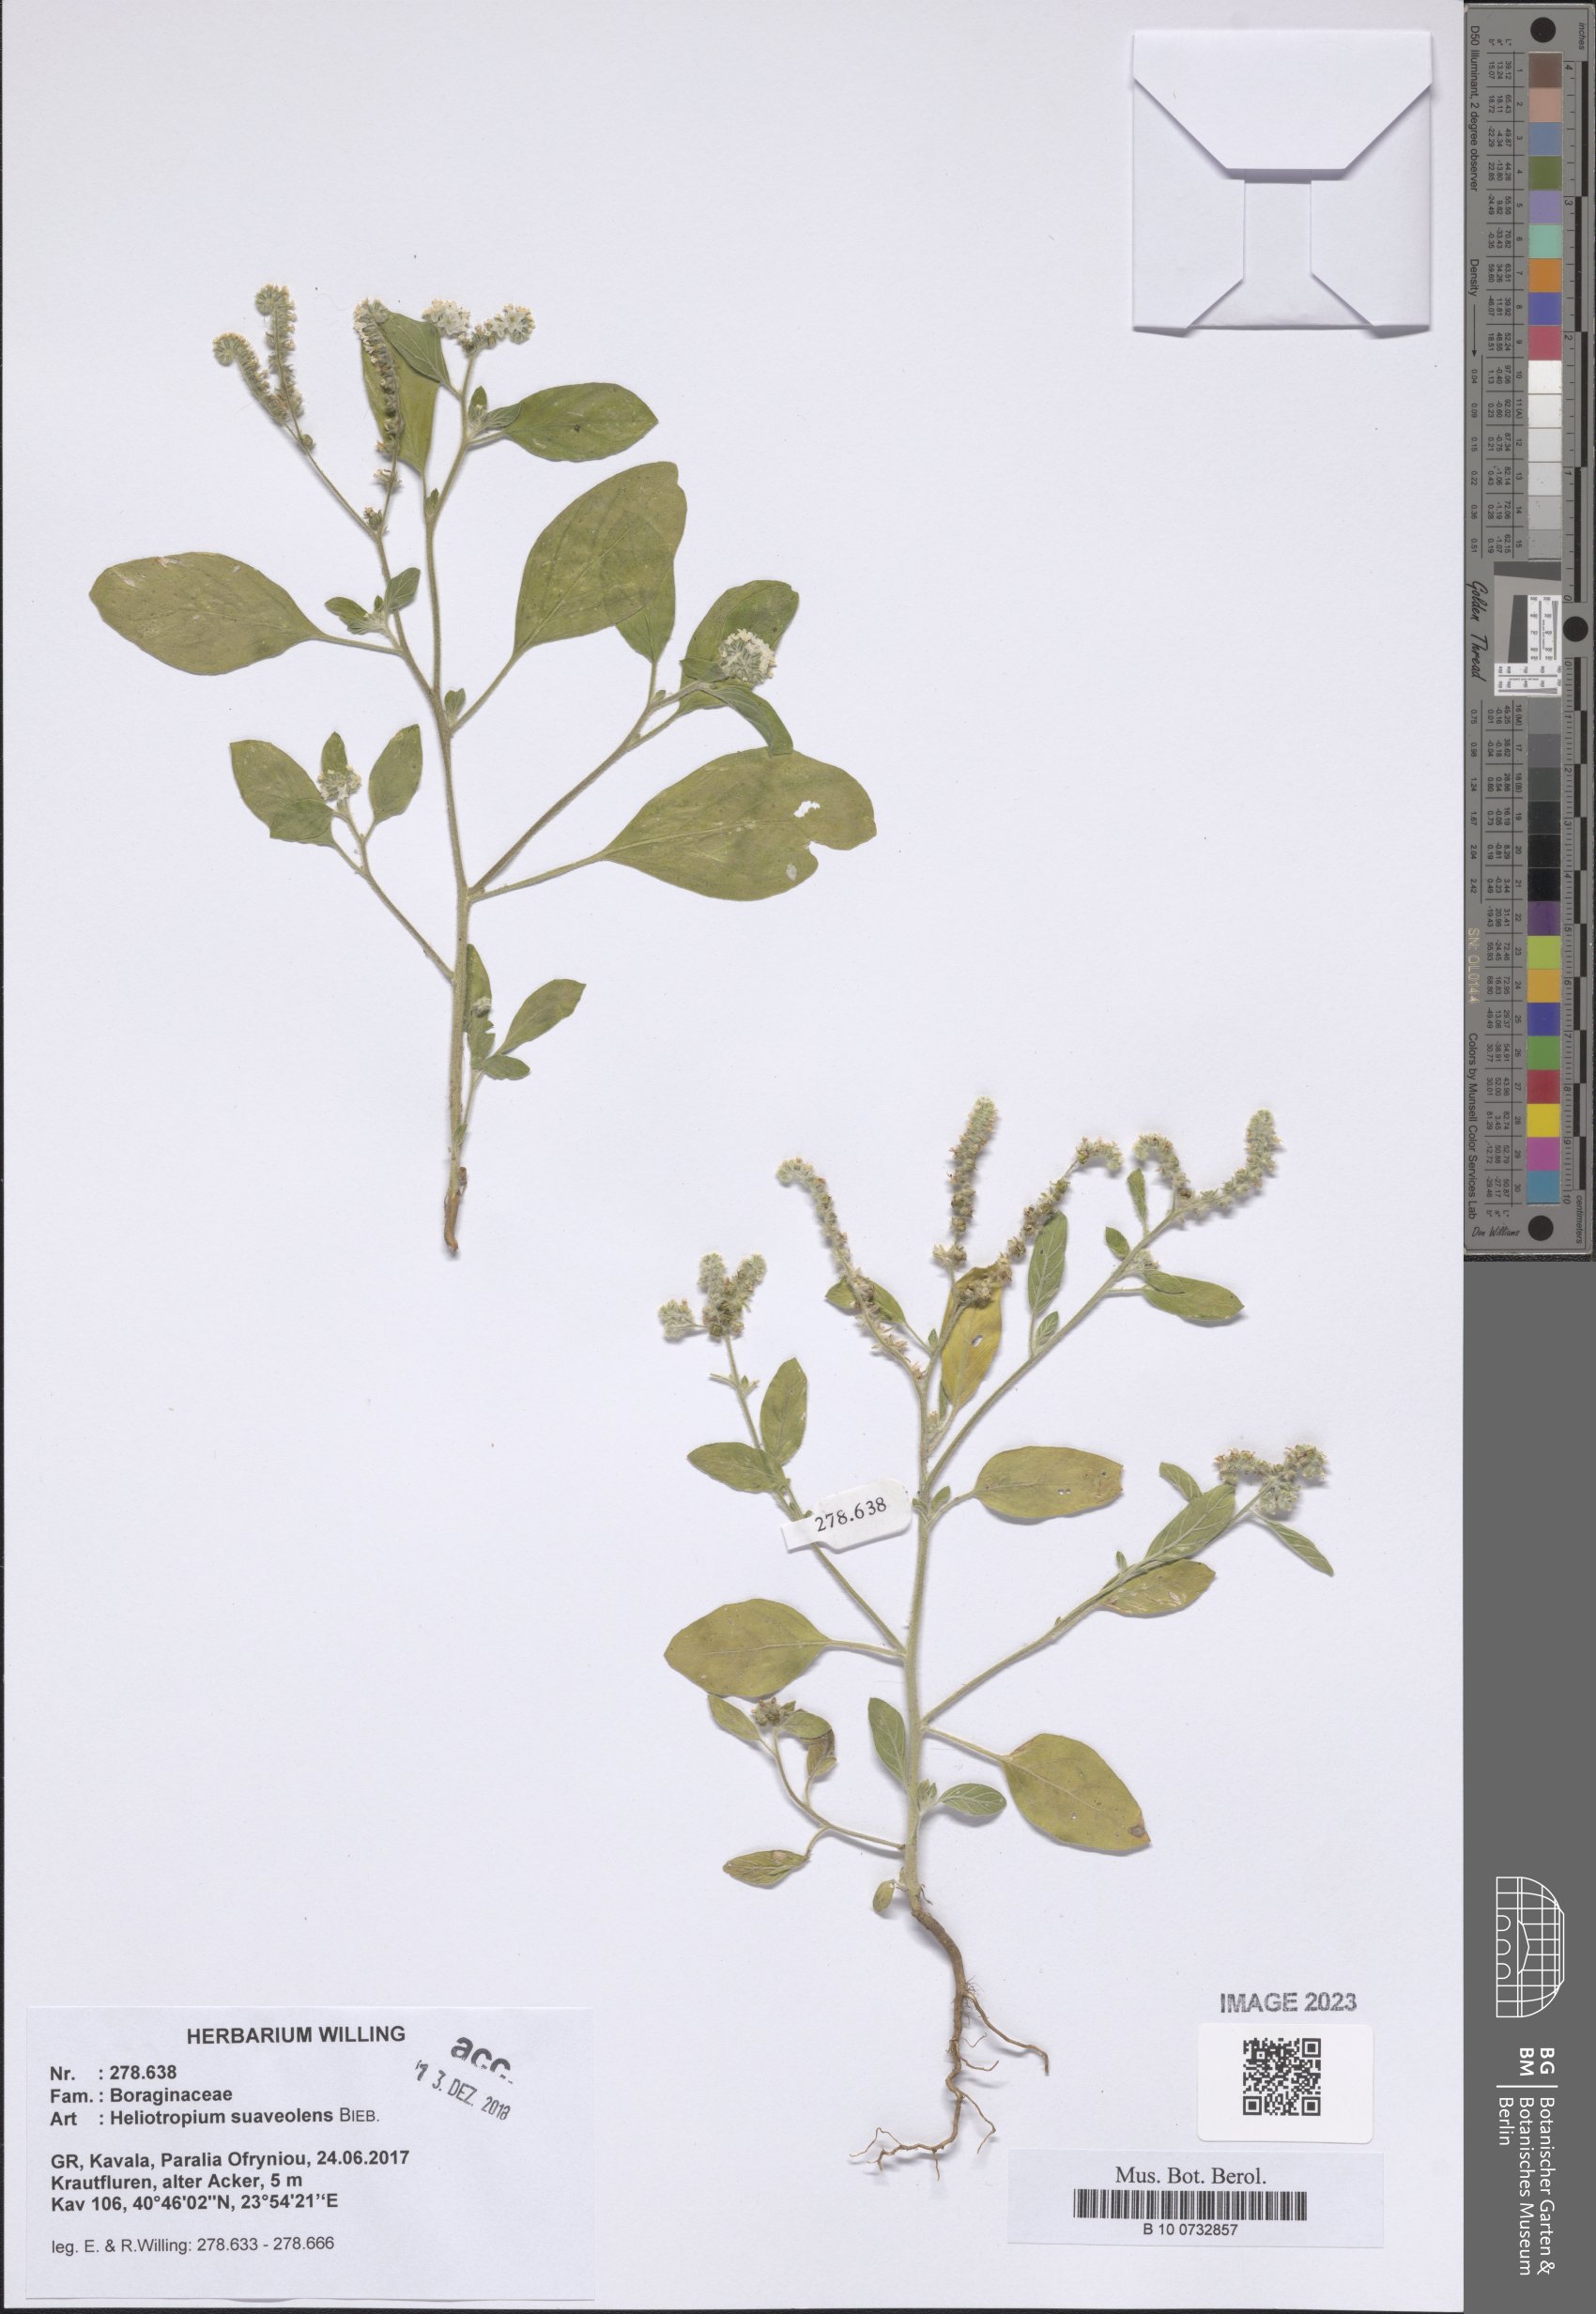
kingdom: Plantae
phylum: Tracheophyta
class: Magnoliopsida
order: Boraginales
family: Heliotropiaceae
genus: Heliotropium
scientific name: Heliotropium suaveolens
